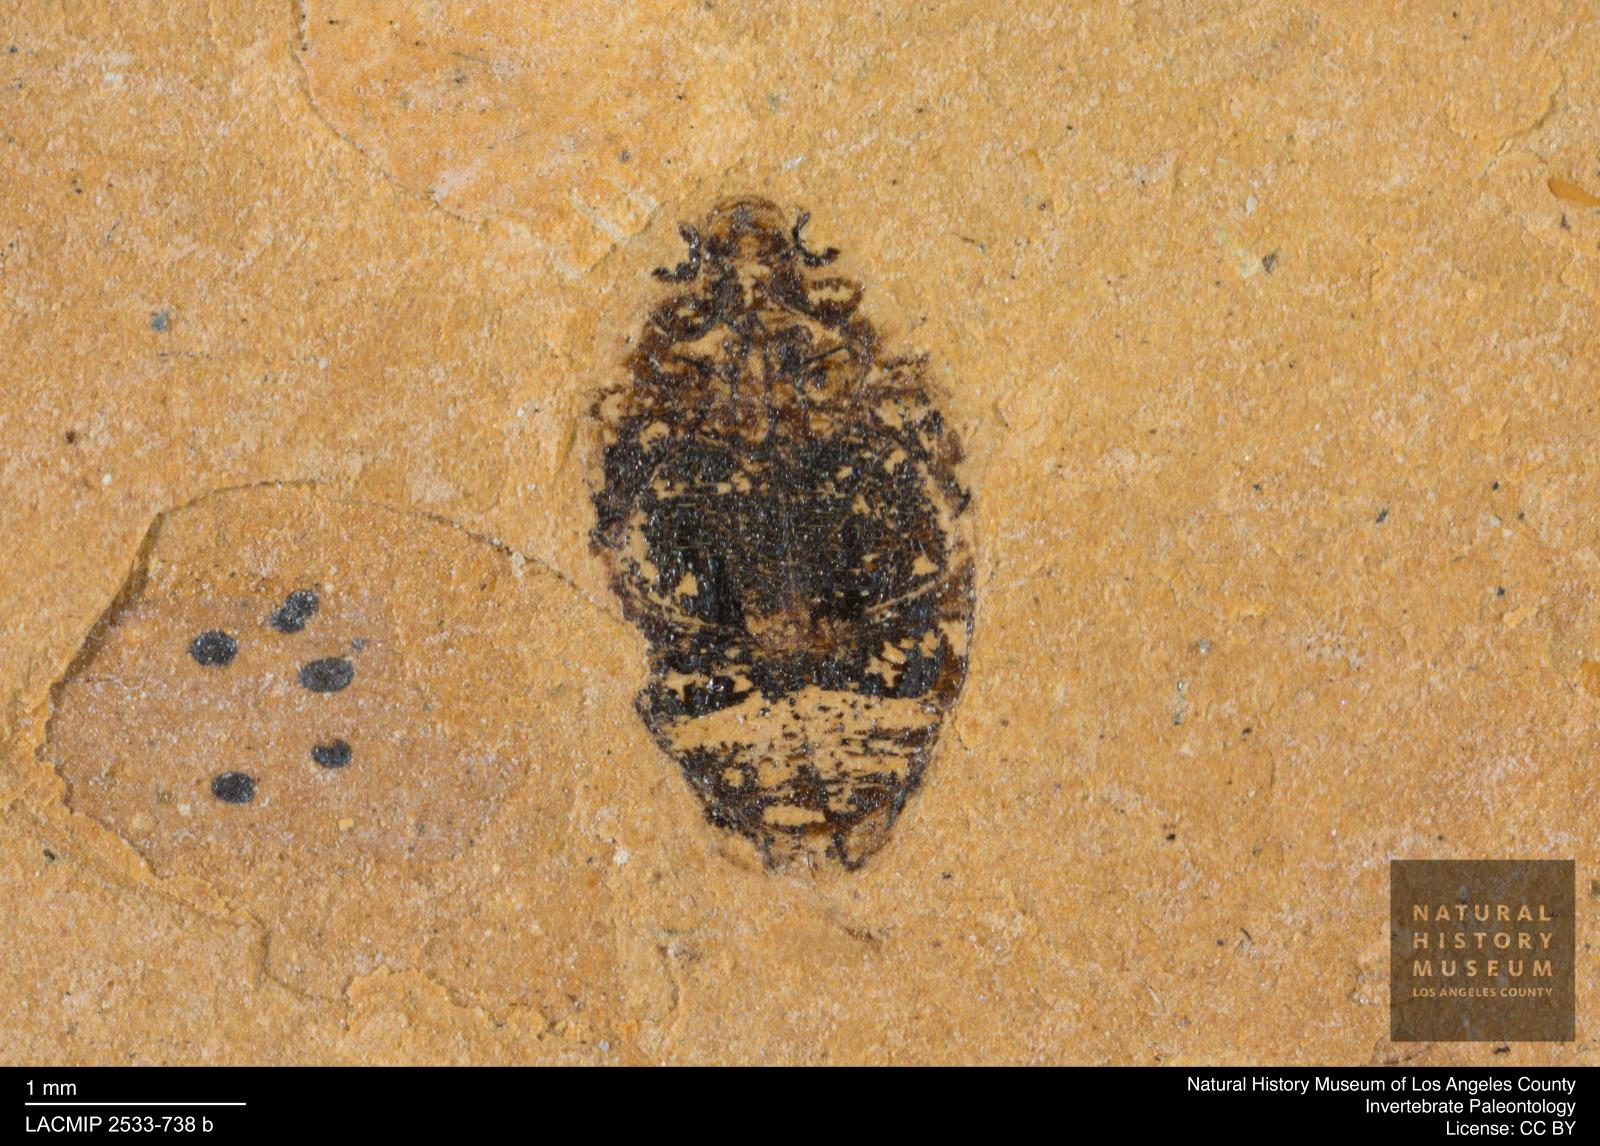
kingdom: Animalia
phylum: Arthropoda
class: Insecta
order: Coleoptera
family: Dytiscidae
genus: Oreodytes
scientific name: Oreodytes cryptolineatus
